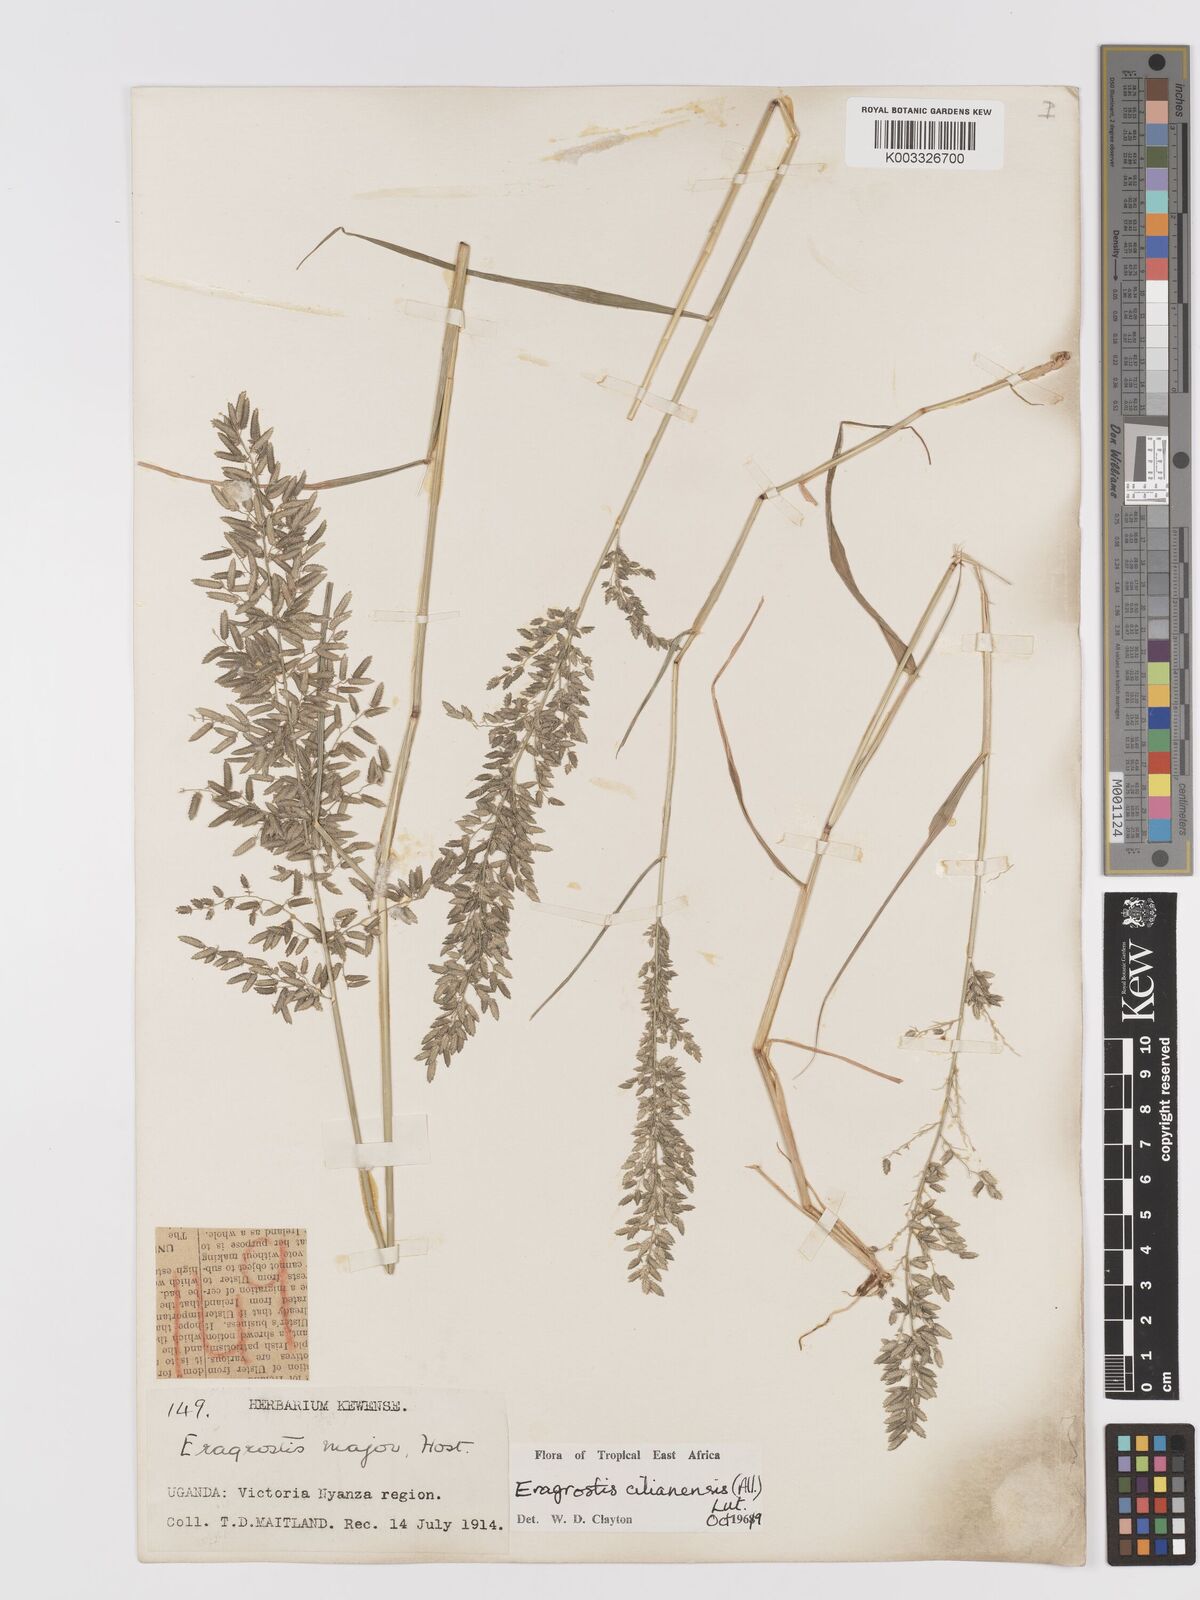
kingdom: Plantae
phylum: Tracheophyta
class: Liliopsida
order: Poales
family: Poaceae
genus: Eragrostis
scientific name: Eragrostis cilianensis
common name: Stinkgrass
